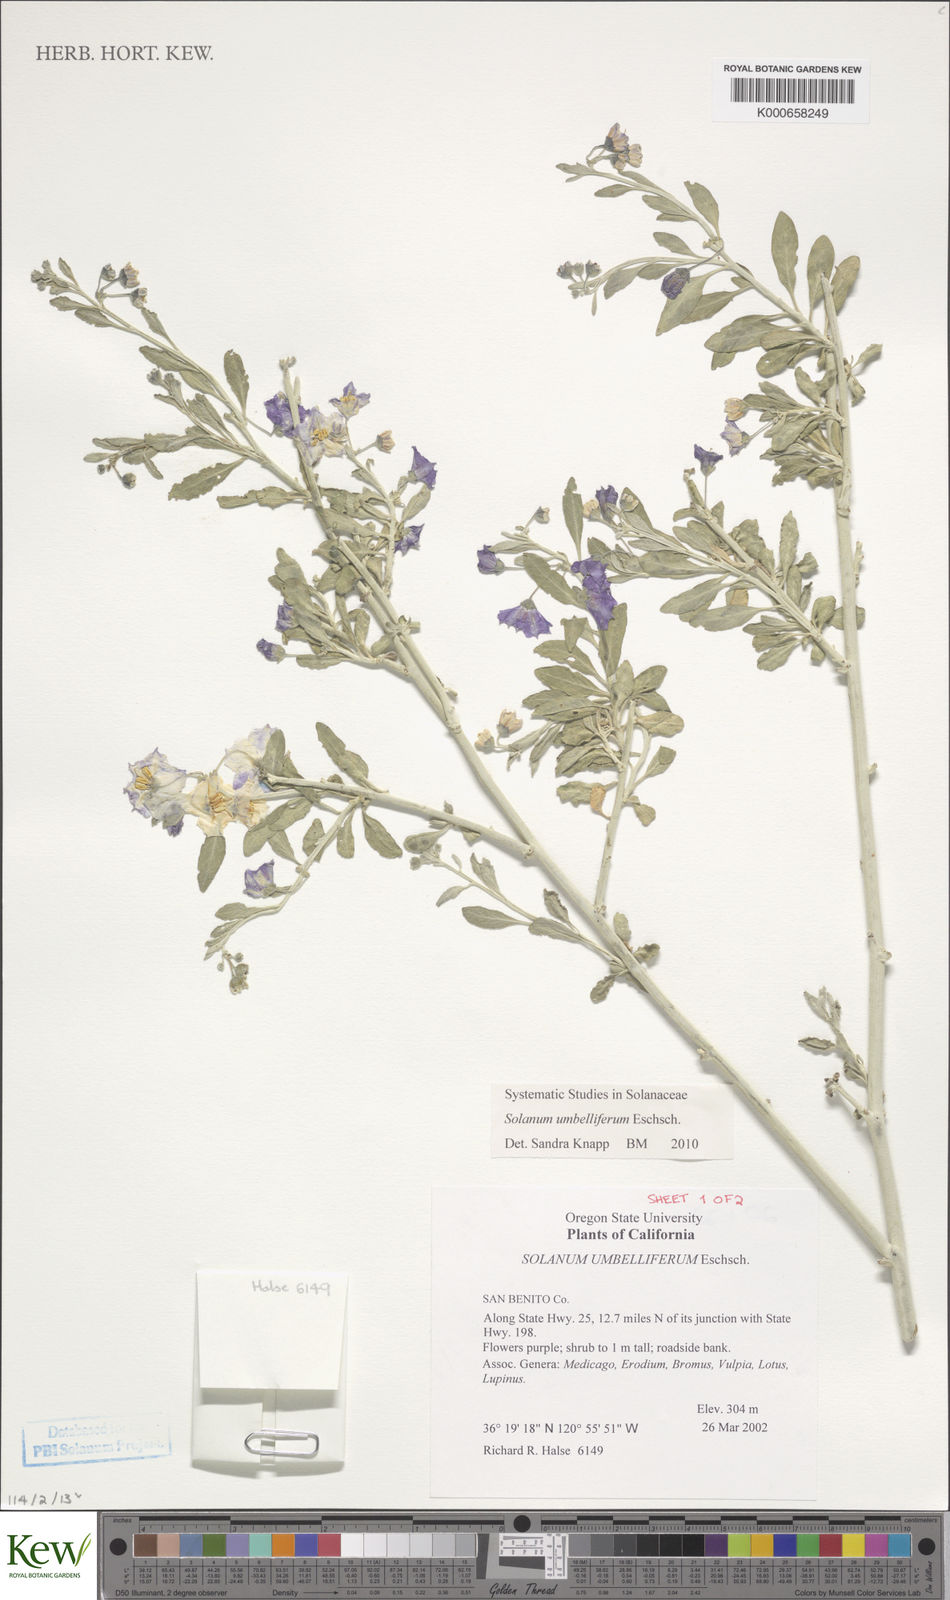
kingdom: Plantae
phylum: Tracheophyta
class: Magnoliopsida
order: Solanales
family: Solanaceae
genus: Solanum
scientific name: Solanum umbelliferum
